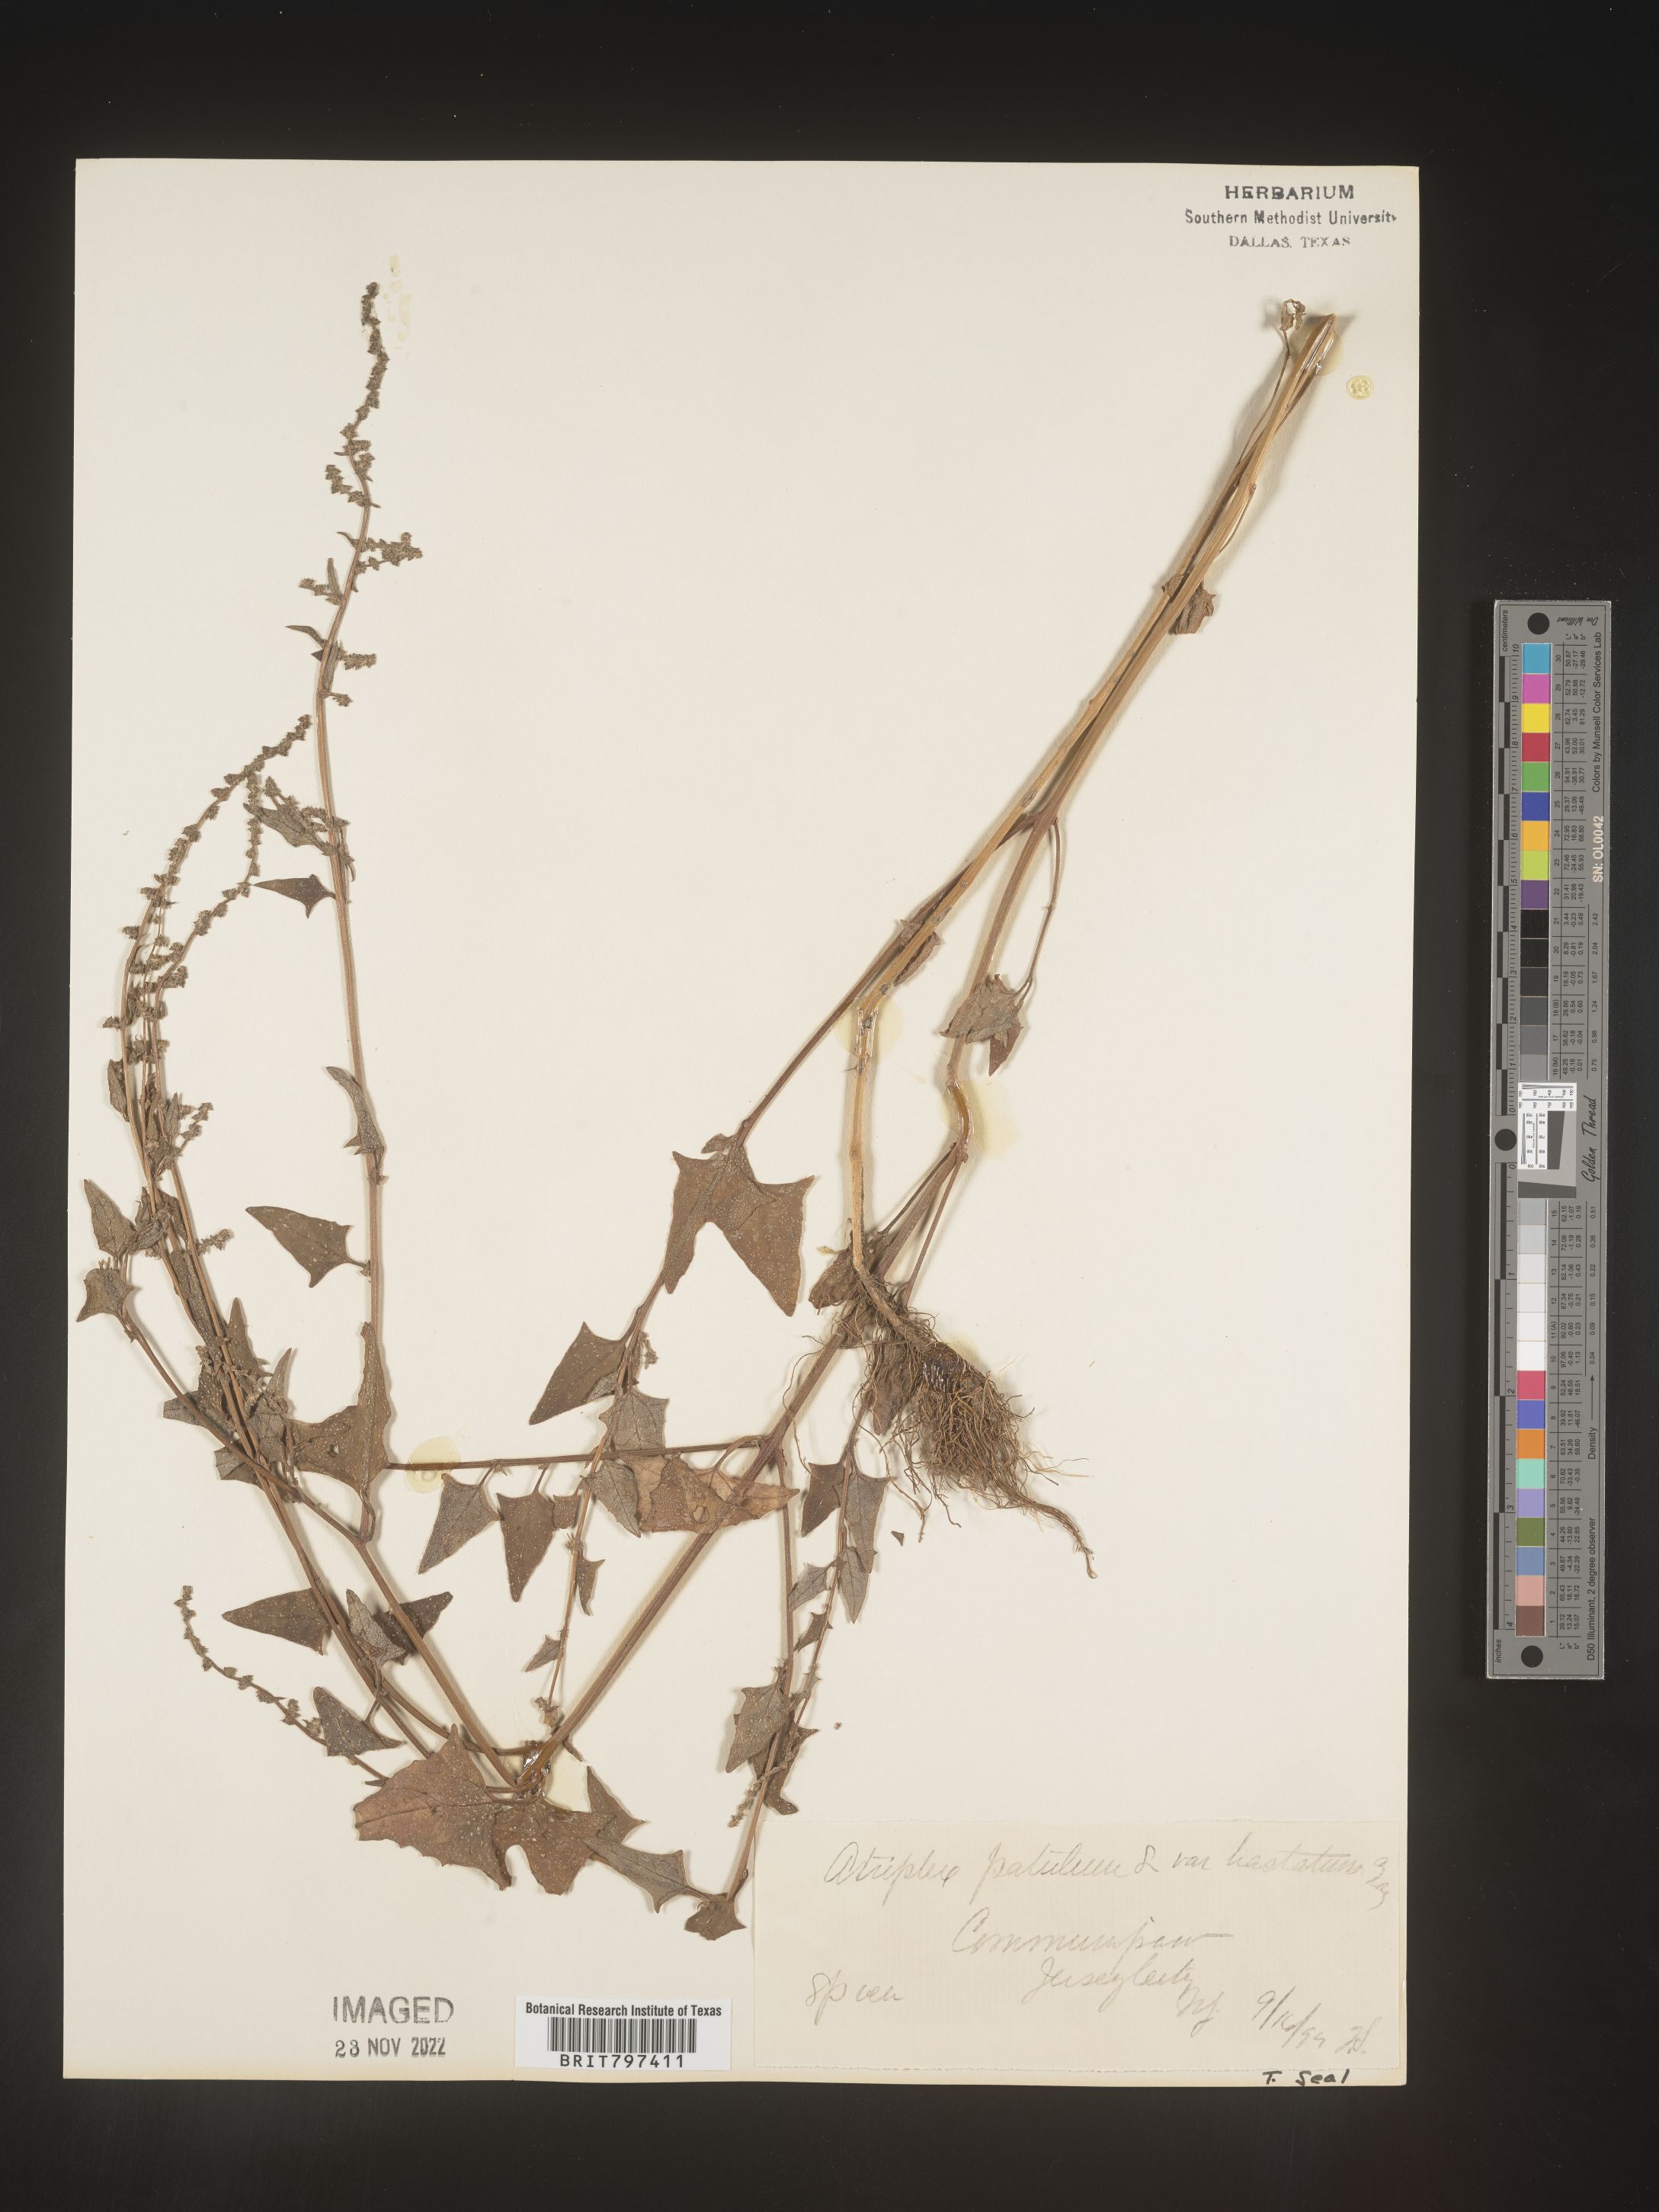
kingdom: Plantae
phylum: Tracheophyta
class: Magnoliopsida
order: Caryophyllales
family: Amaranthaceae
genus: Atriplex
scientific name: Atriplex prostrata
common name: Spear-leaved orache
